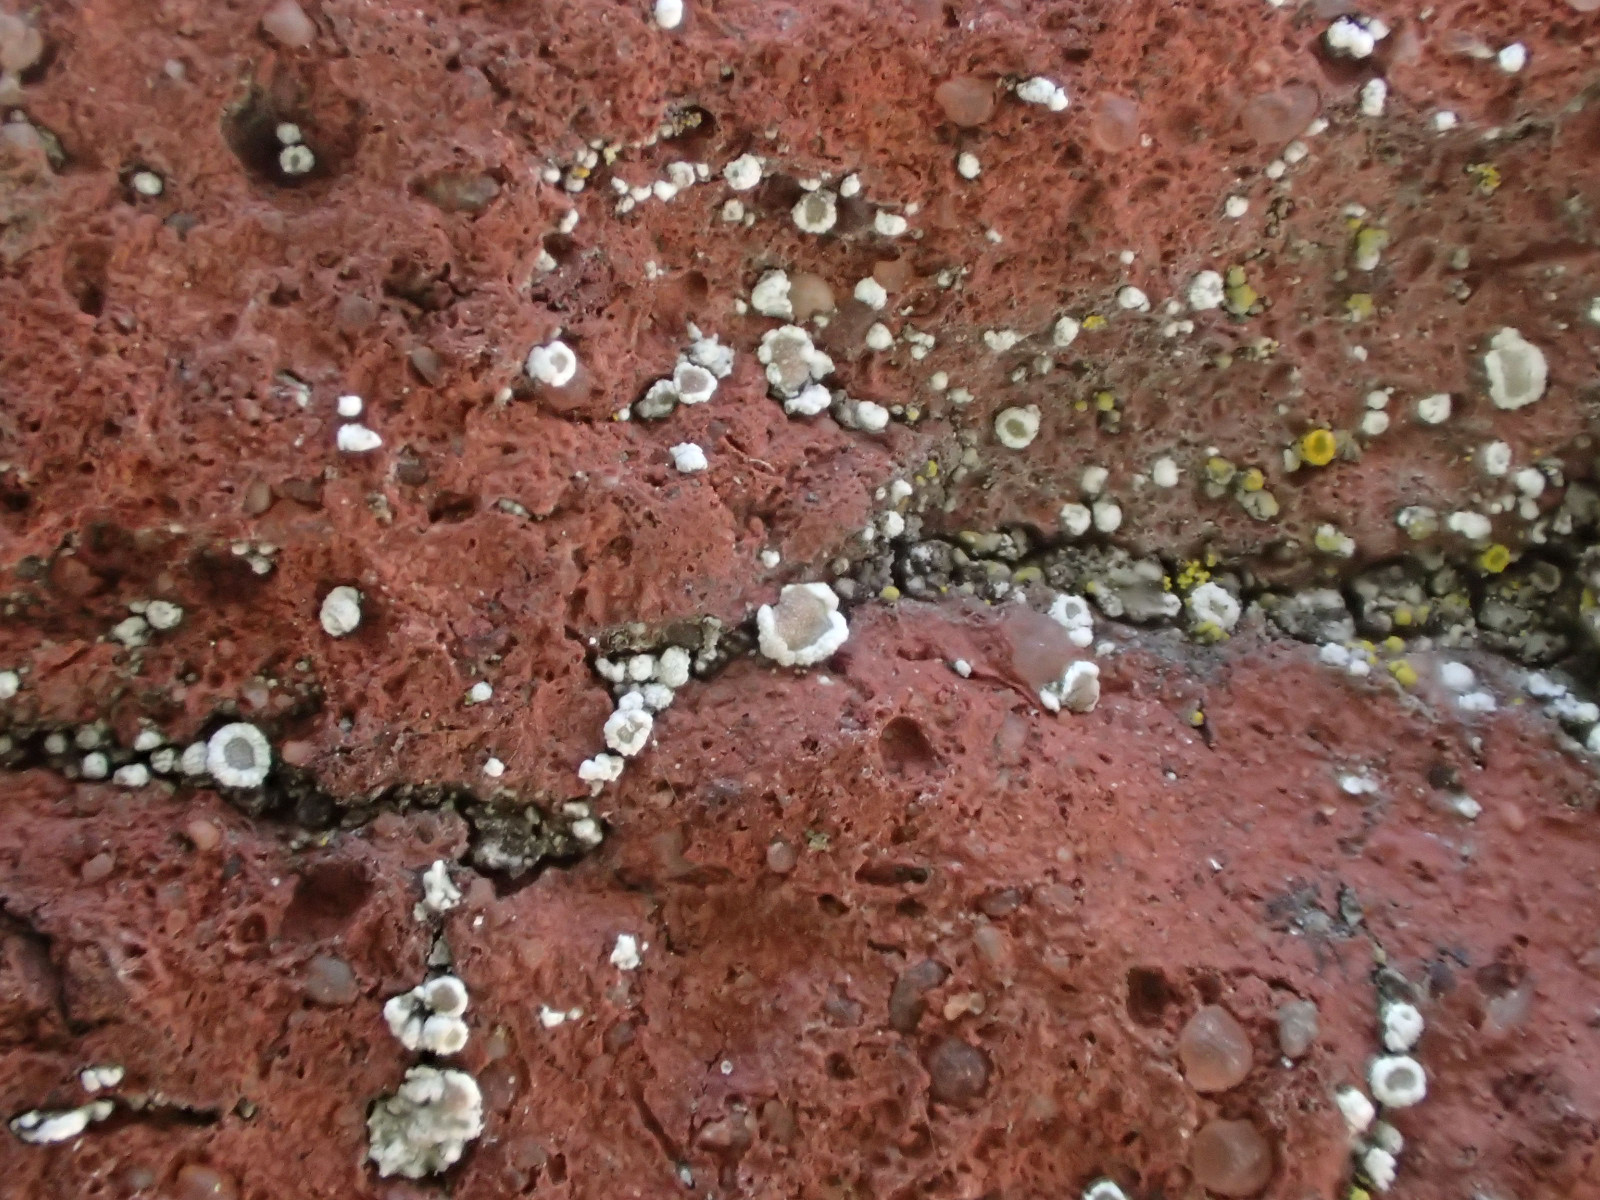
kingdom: Fungi
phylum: Ascomycota
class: Lecanoromycetes
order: Lecanorales
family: Lecanoraceae
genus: Myriolecis
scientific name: Myriolecis crenulata
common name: beton-kantskivelav
